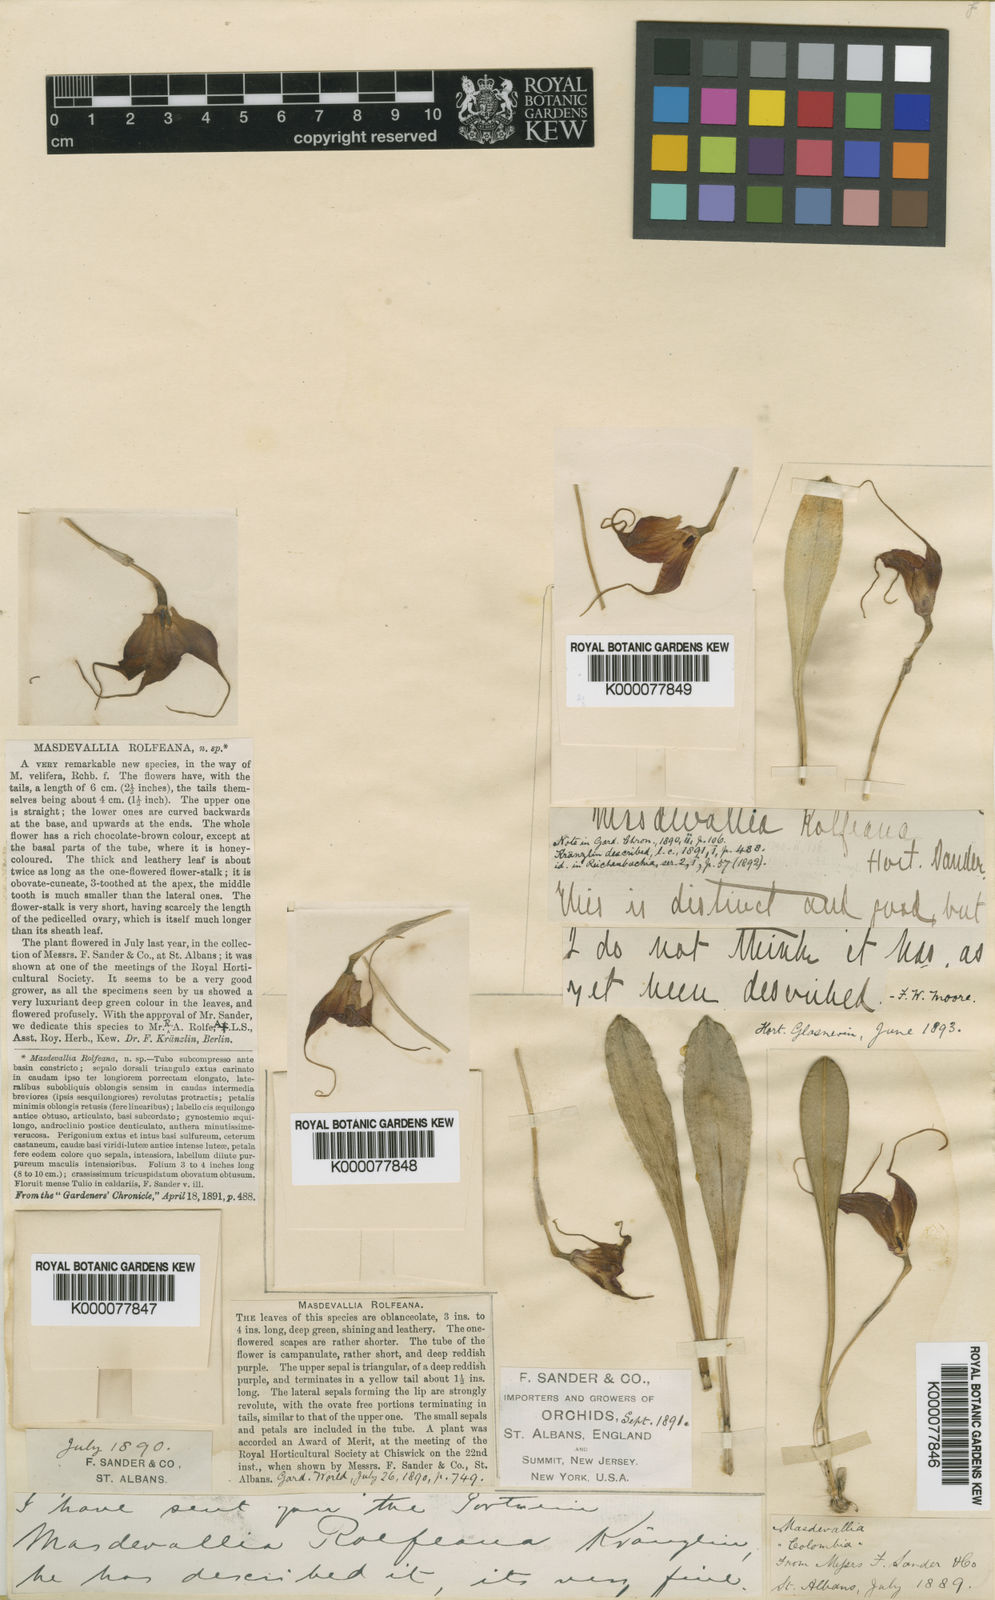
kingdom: Plantae
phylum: Tracheophyta
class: Liliopsida
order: Asparagales
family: Orchidaceae
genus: Masdevallia
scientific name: Masdevallia rolfeana
